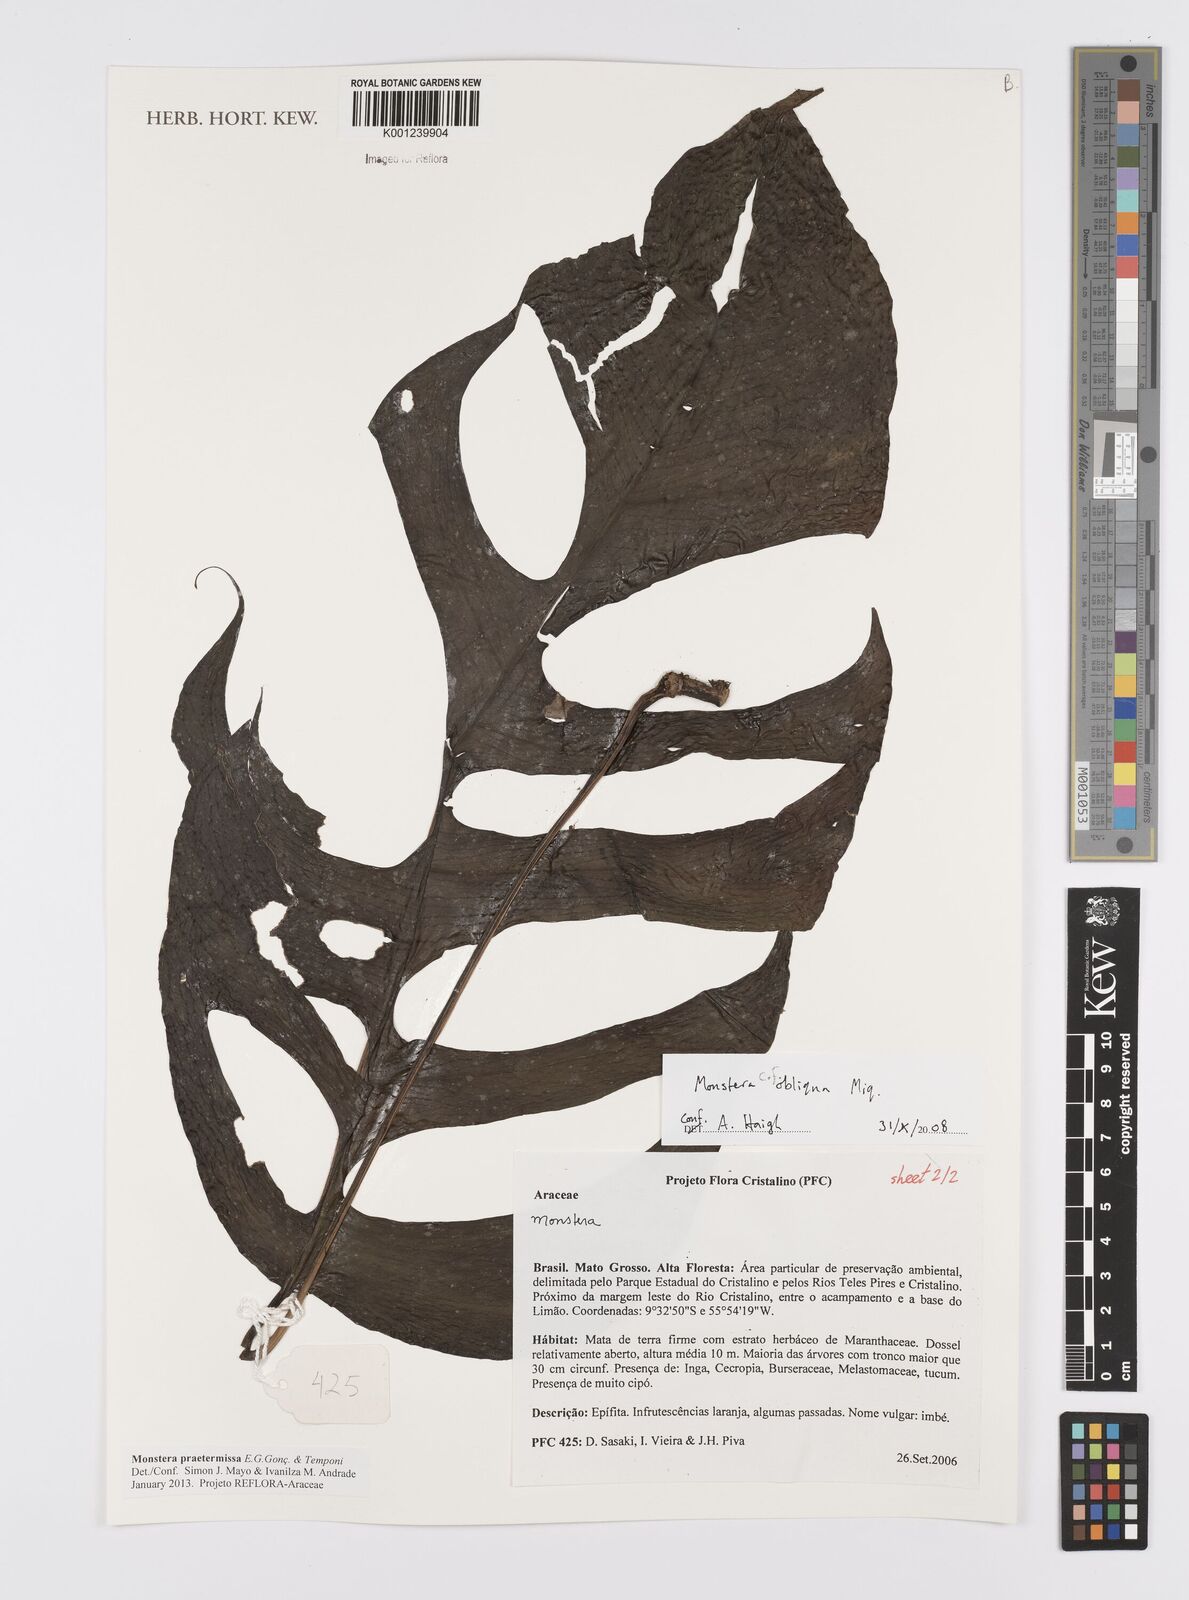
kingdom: Plantae
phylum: Tracheophyta
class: Liliopsida
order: Alismatales
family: Araceae
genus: Monstera
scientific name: Monstera praetermissa
